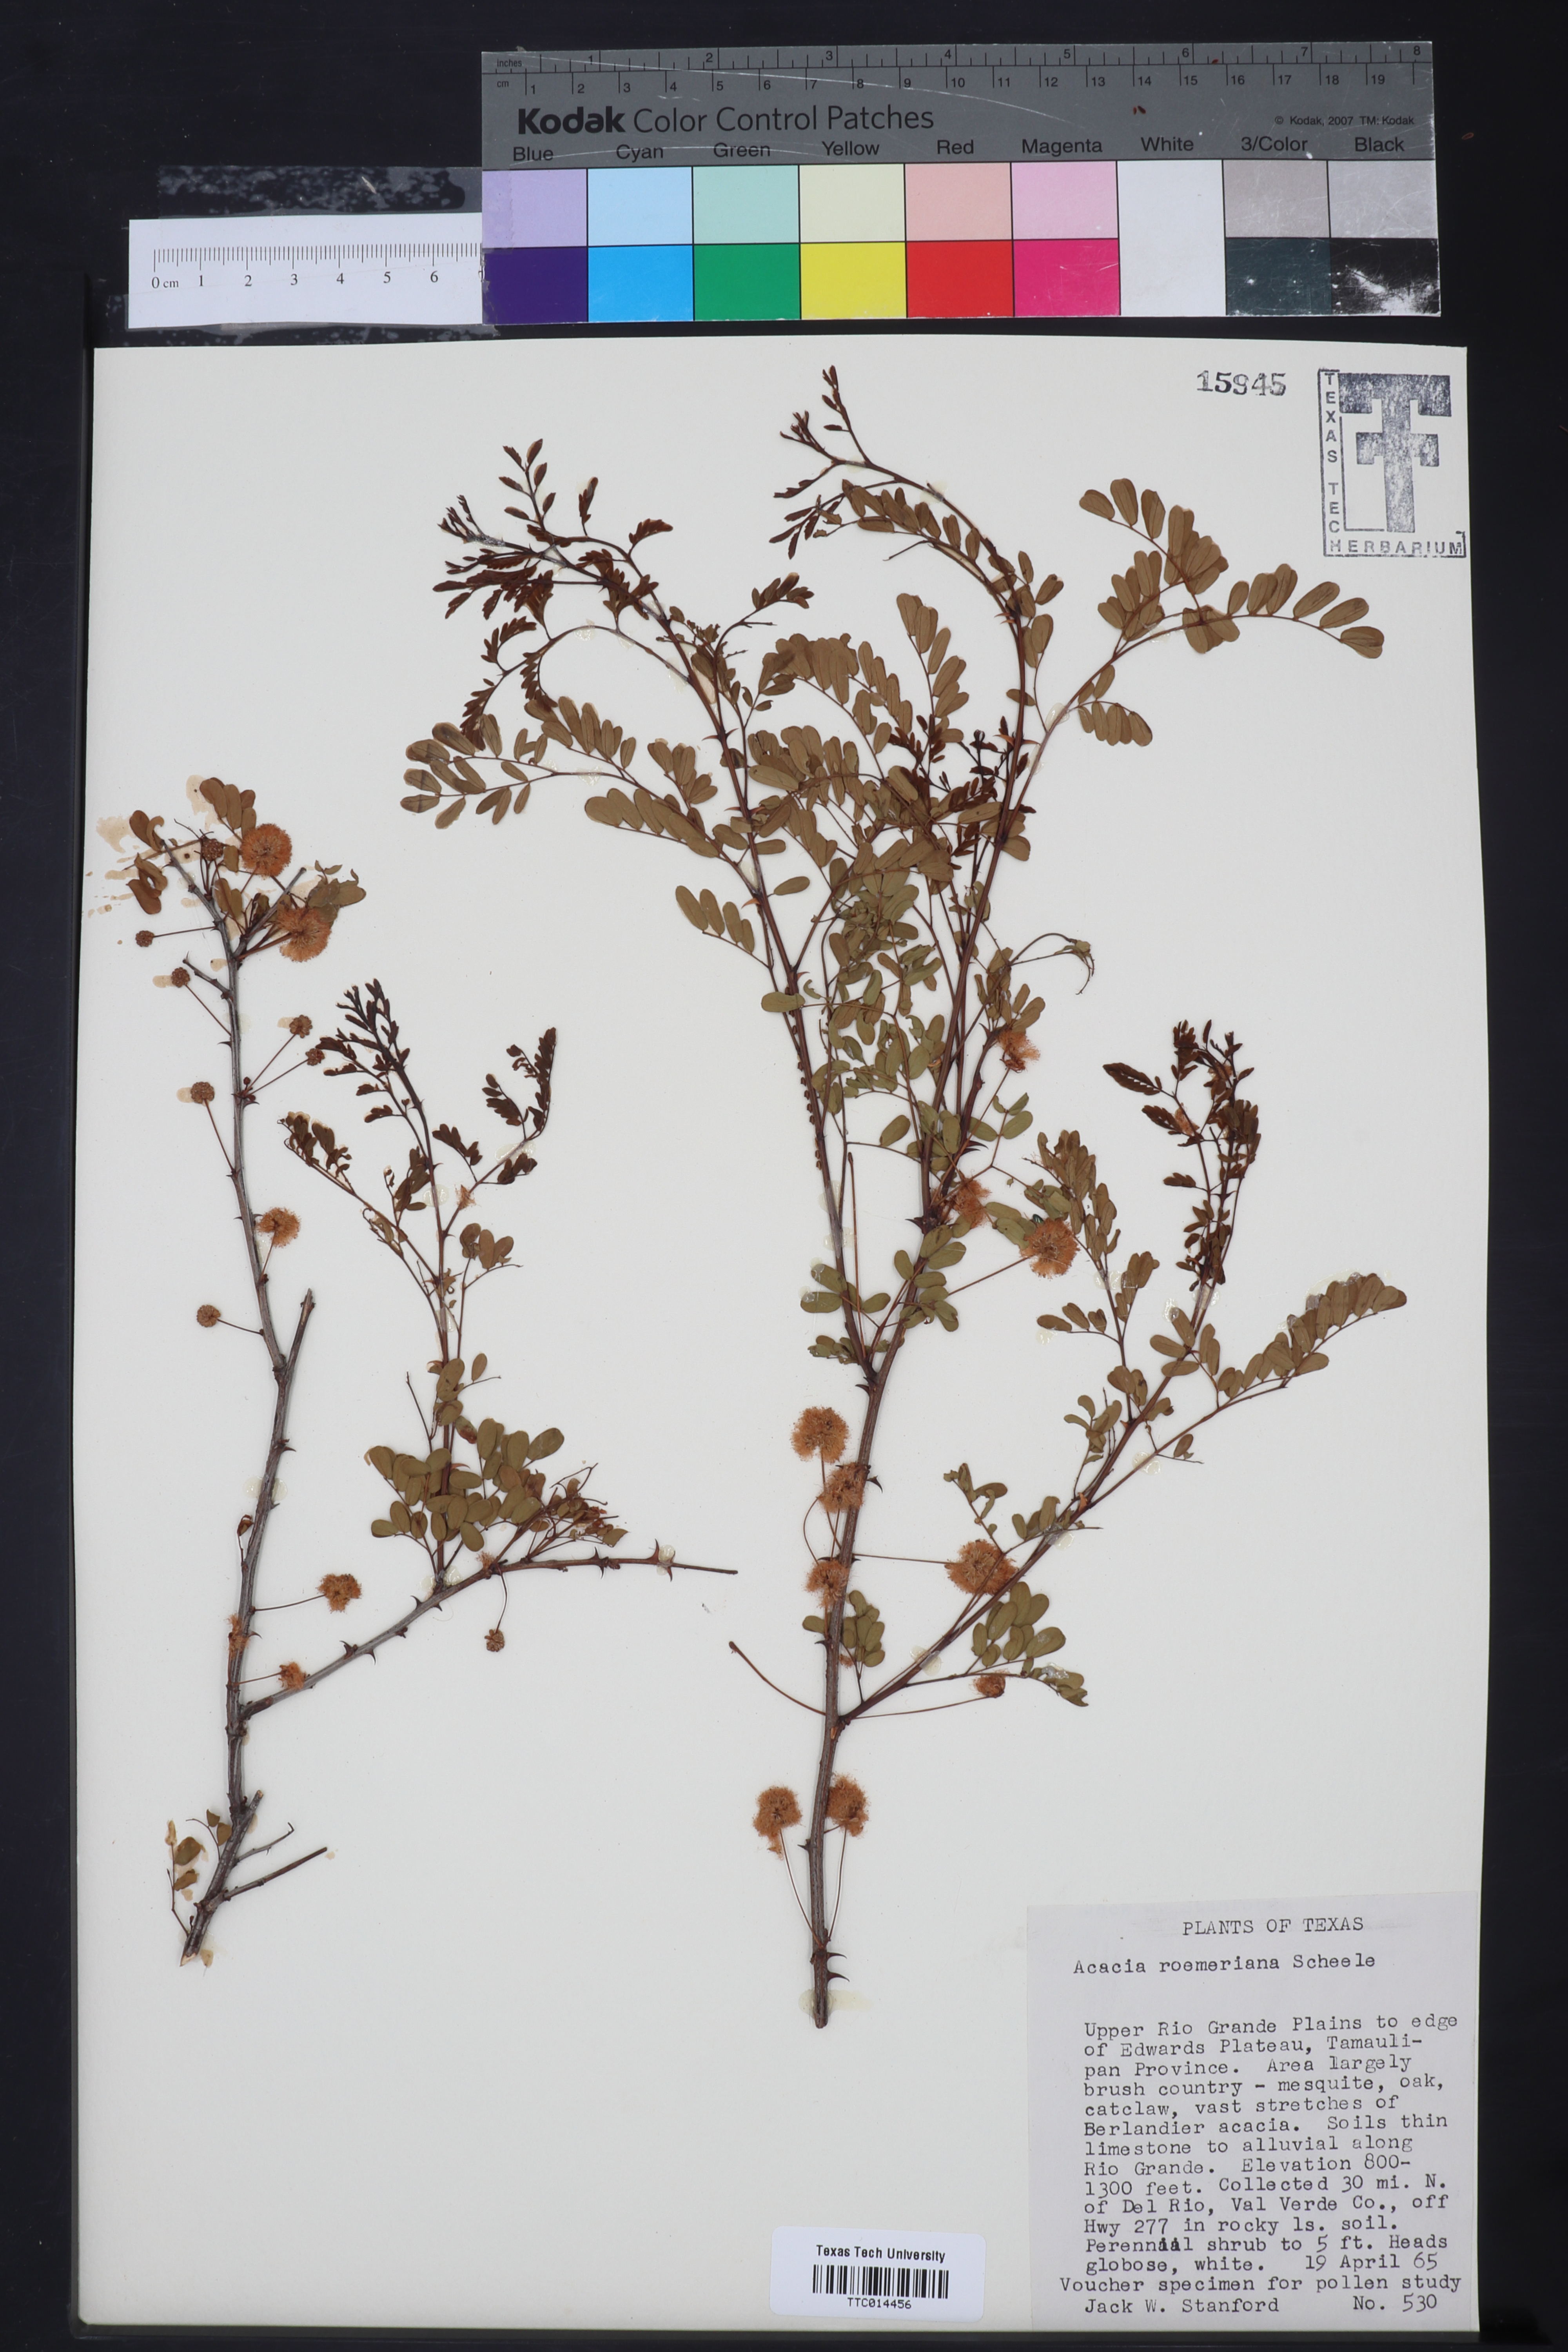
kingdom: Plantae
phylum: Tracheophyta
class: Magnoliopsida
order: Fabales
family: Fabaceae
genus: Senegalia
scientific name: Senegalia roemeriana
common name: Roemer's acacia
